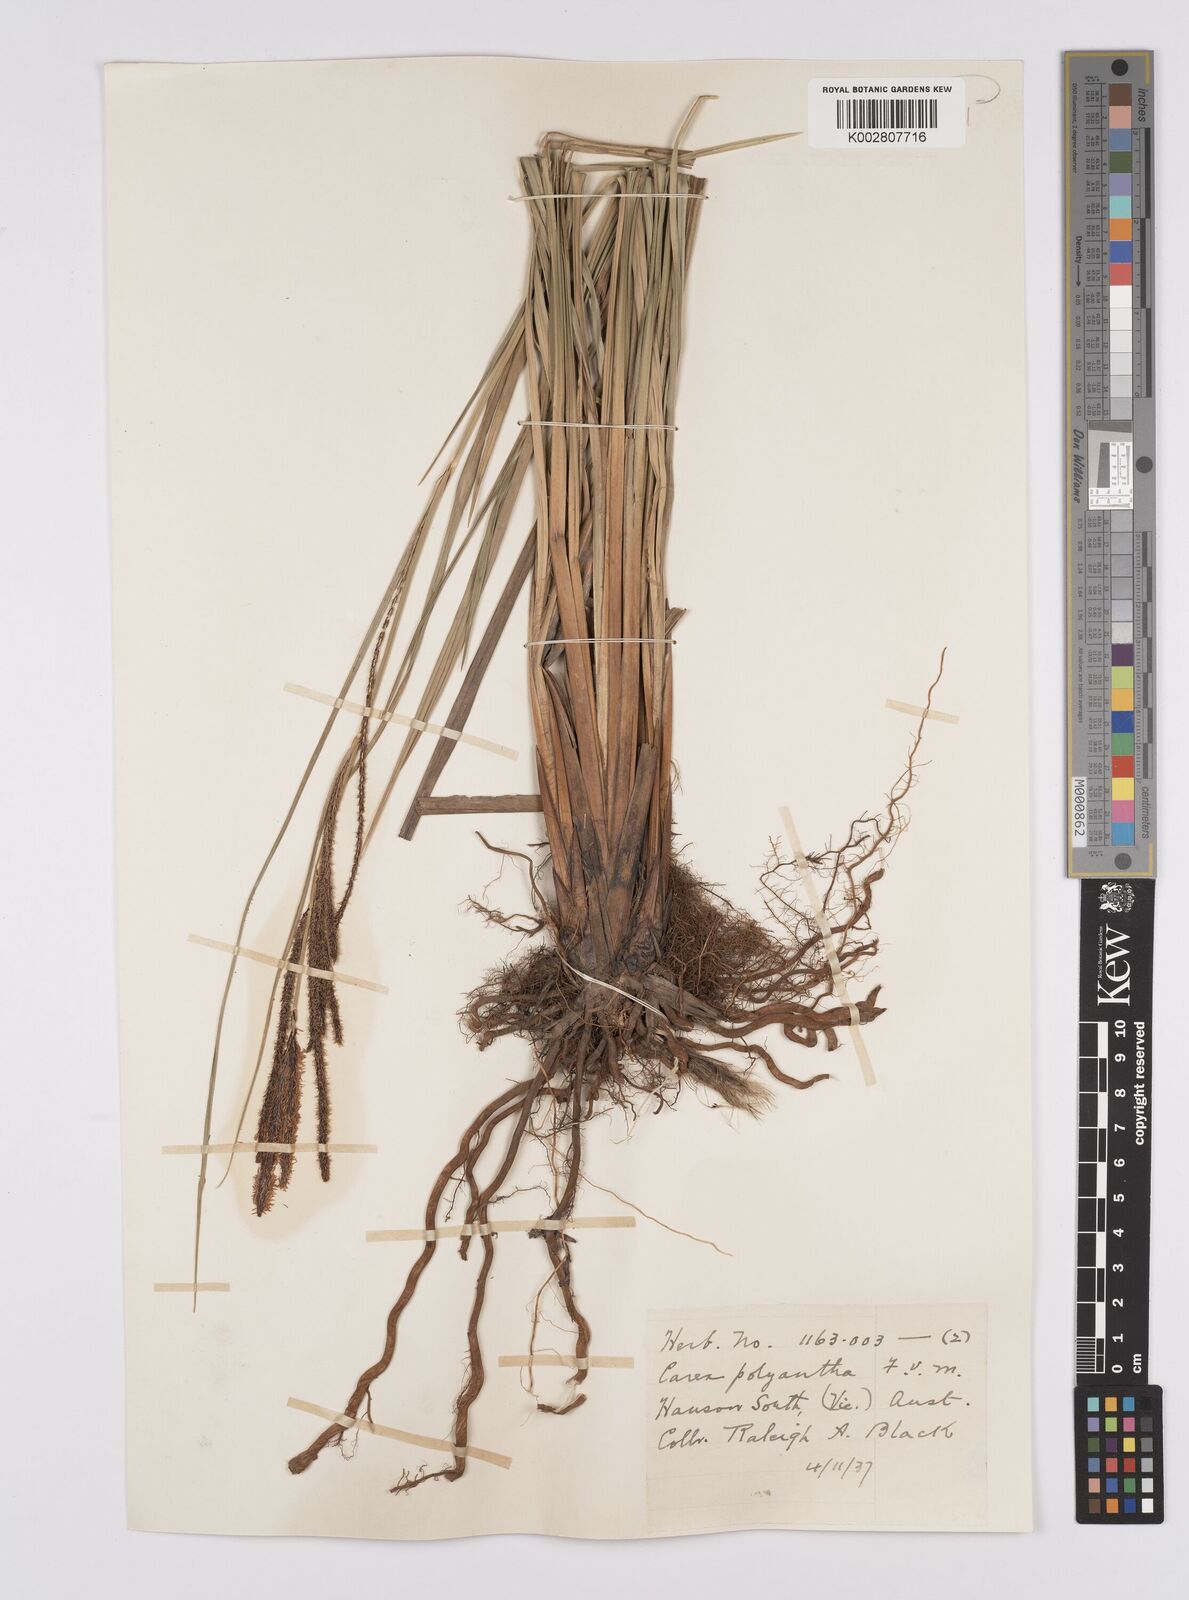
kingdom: Plantae
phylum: Tracheophyta
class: Liliopsida
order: Poales
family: Cyperaceae
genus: Carex
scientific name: Carex polyantha
